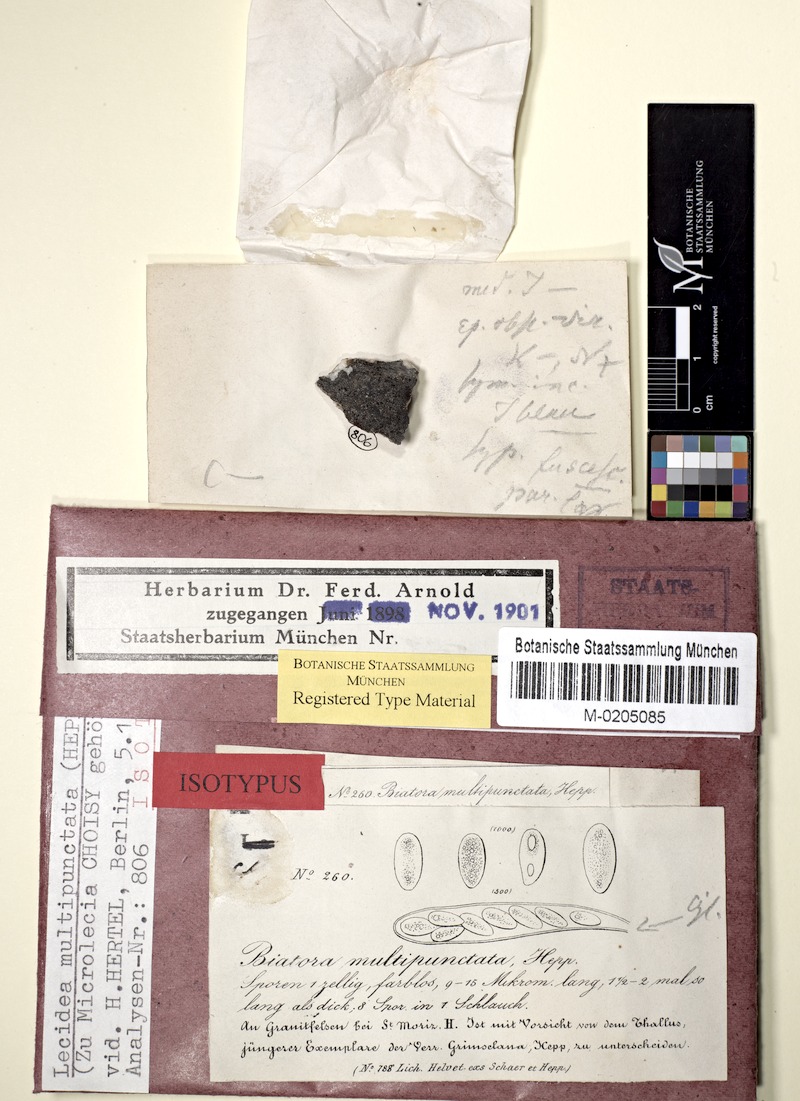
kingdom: Fungi
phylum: Ascomycota
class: Lecanoromycetes
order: Lecideales
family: Lecideaceae
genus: Lecidea
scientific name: Lecidea
